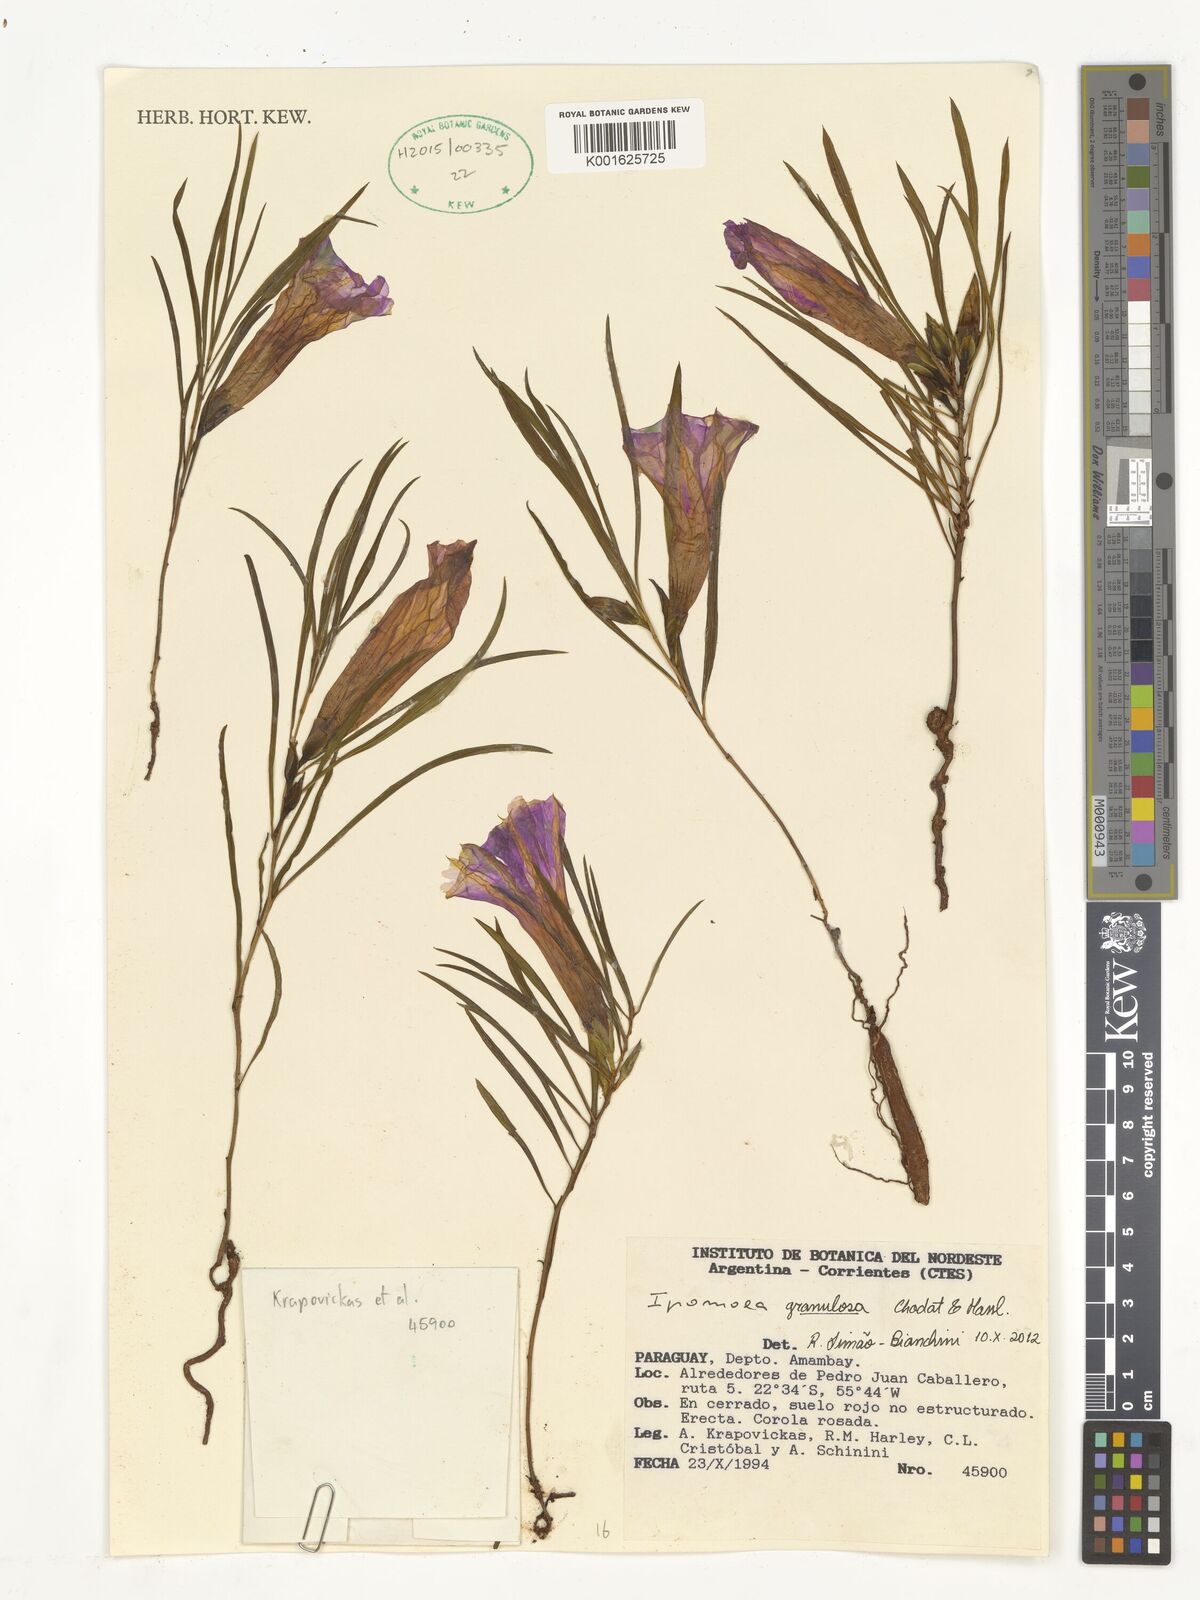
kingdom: Plantae
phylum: Tracheophyta
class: Magnoliopsida
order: Solanales
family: Convolvulaceae
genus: Ipomoea
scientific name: Ipomoea granulosa
